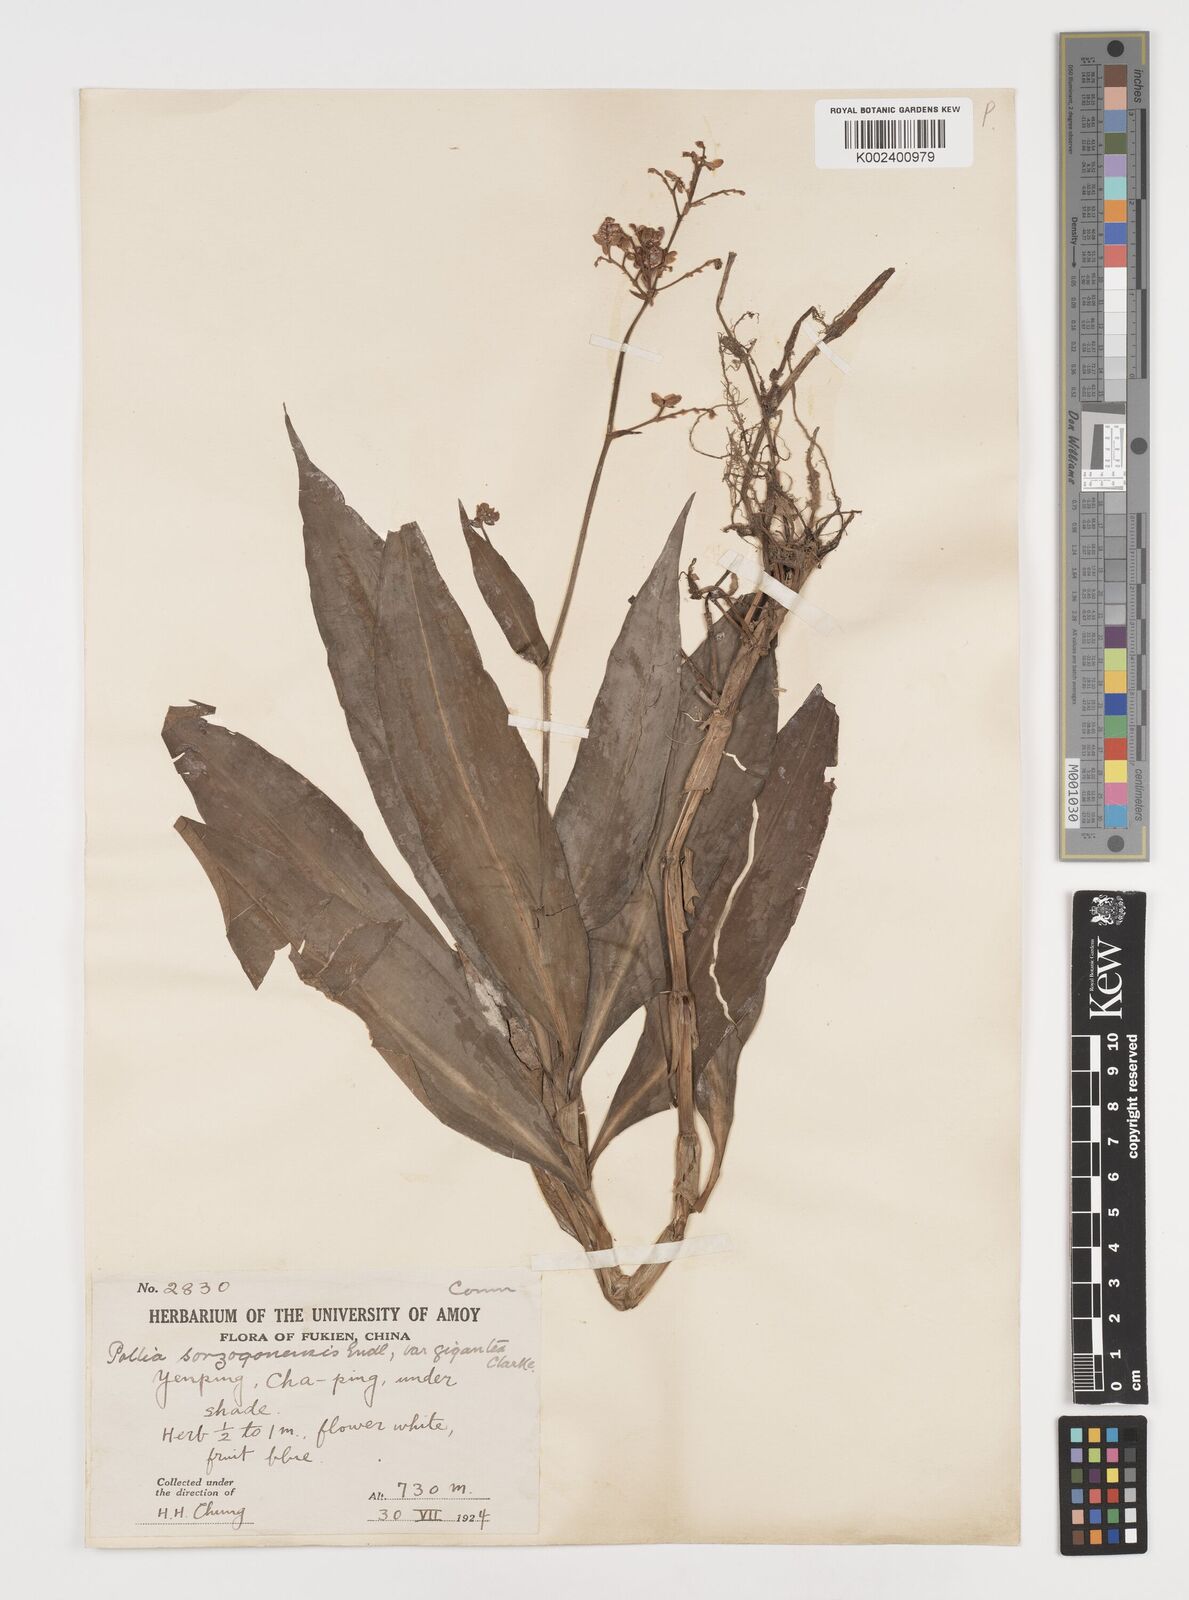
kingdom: Plantae
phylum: Tracheophyta
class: Liliopsida
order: Commelinales
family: Commelinaceae
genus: Pollia
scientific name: Pollia secundiflora
